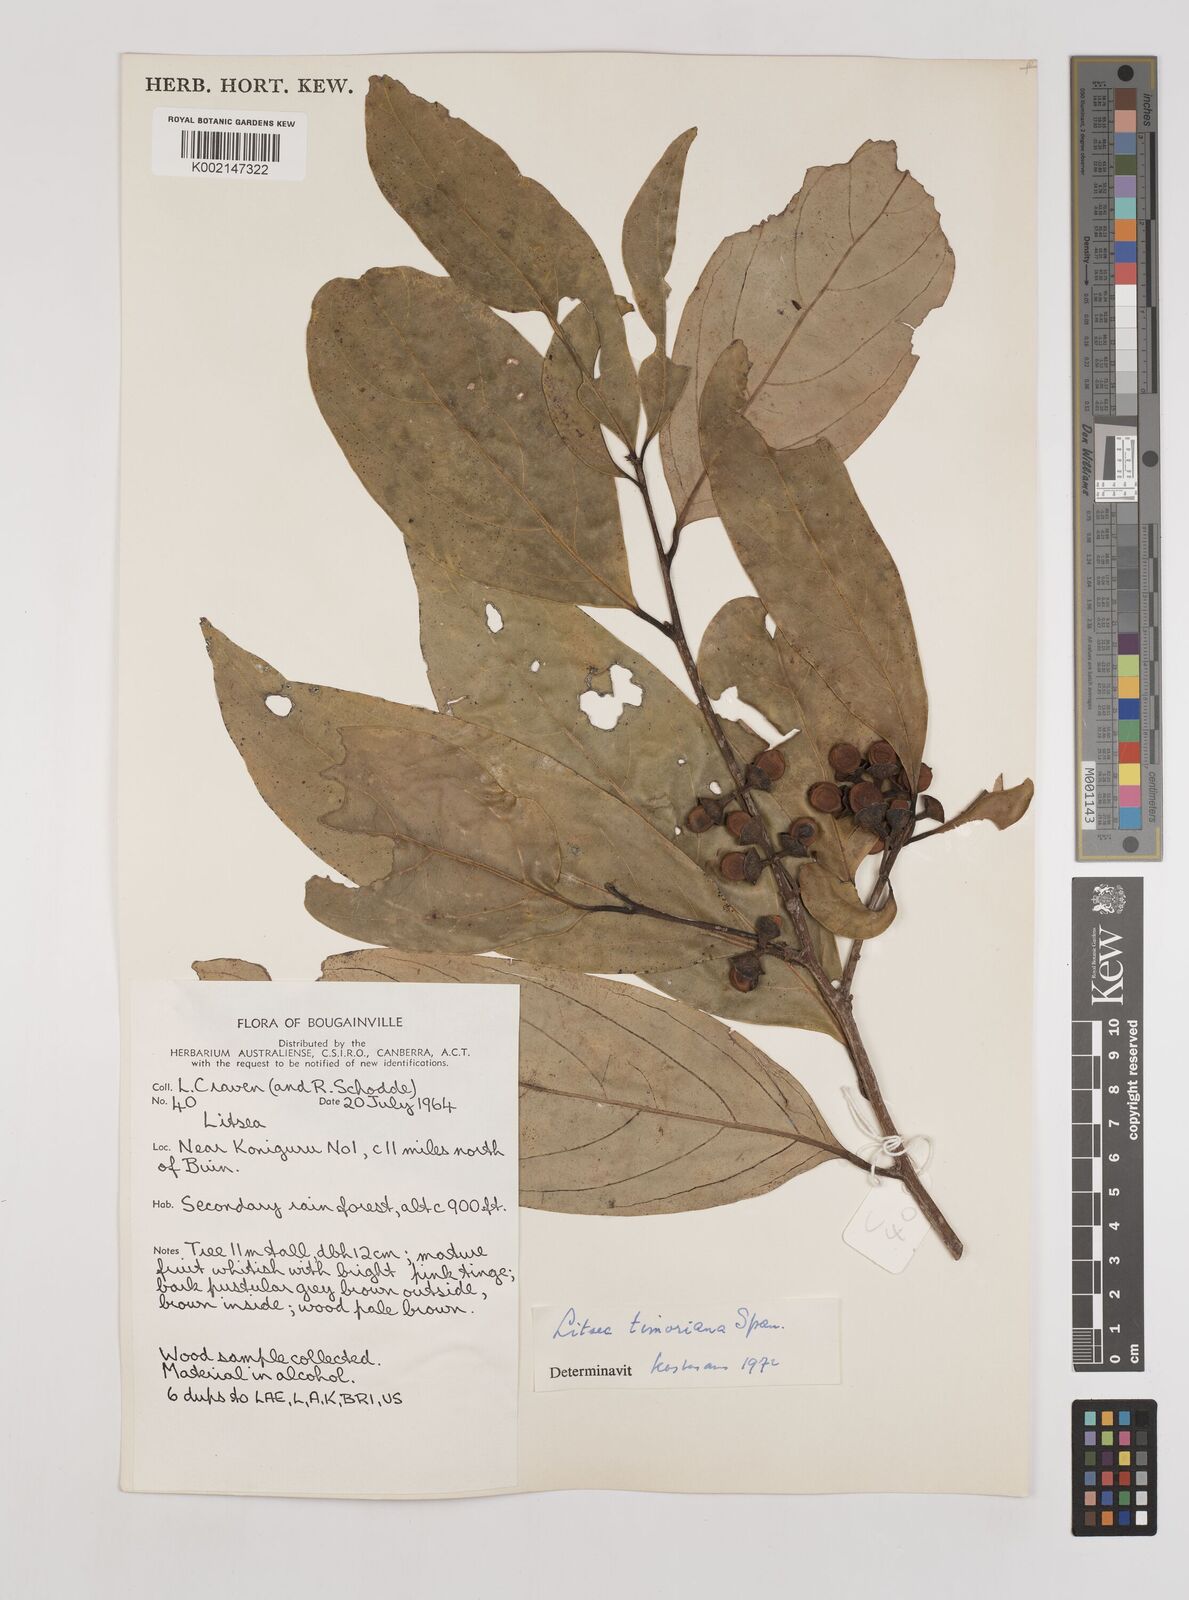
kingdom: Plantae
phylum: Tracheophyta
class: Magnoliopsida
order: Laurales
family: Lauraceae
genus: Litsea
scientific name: Litsea timoriana
